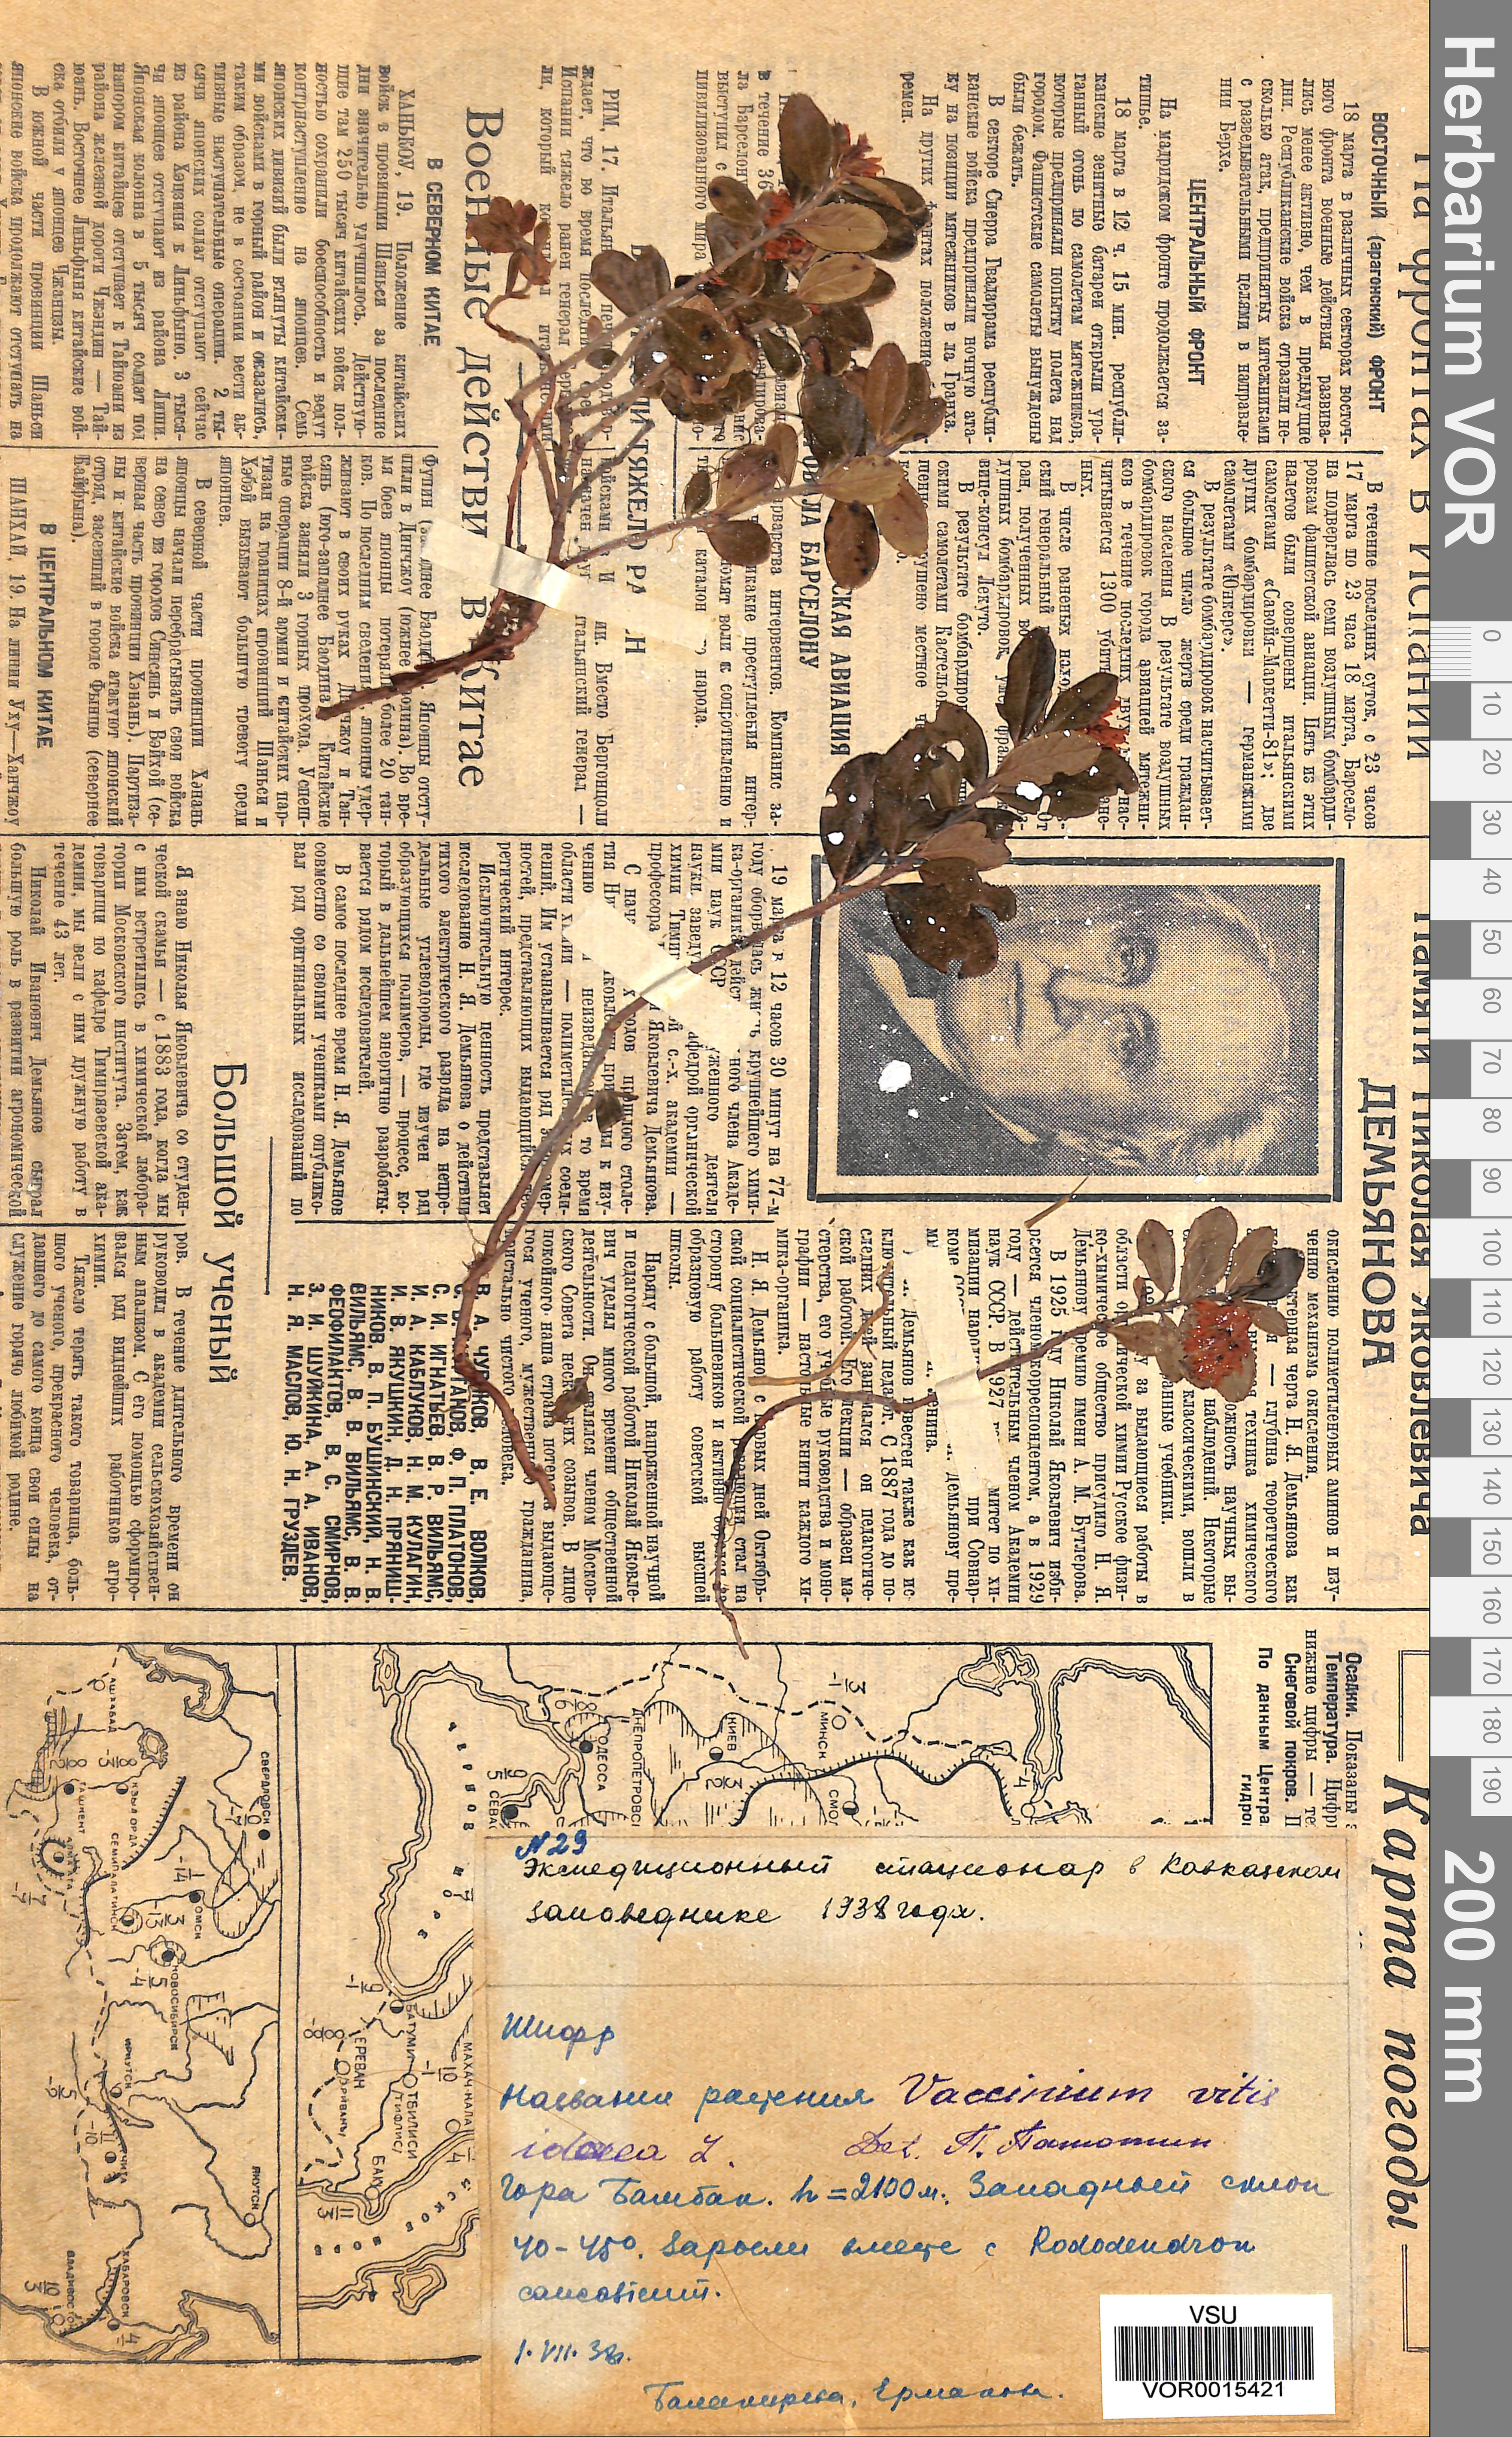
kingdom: Plantae
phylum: Tracheophyta
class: Magnoliopsida
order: Ericales
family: Ericaceae
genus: Vaccinium
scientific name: Vaccinium vitis-idaea
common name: Cowberry
